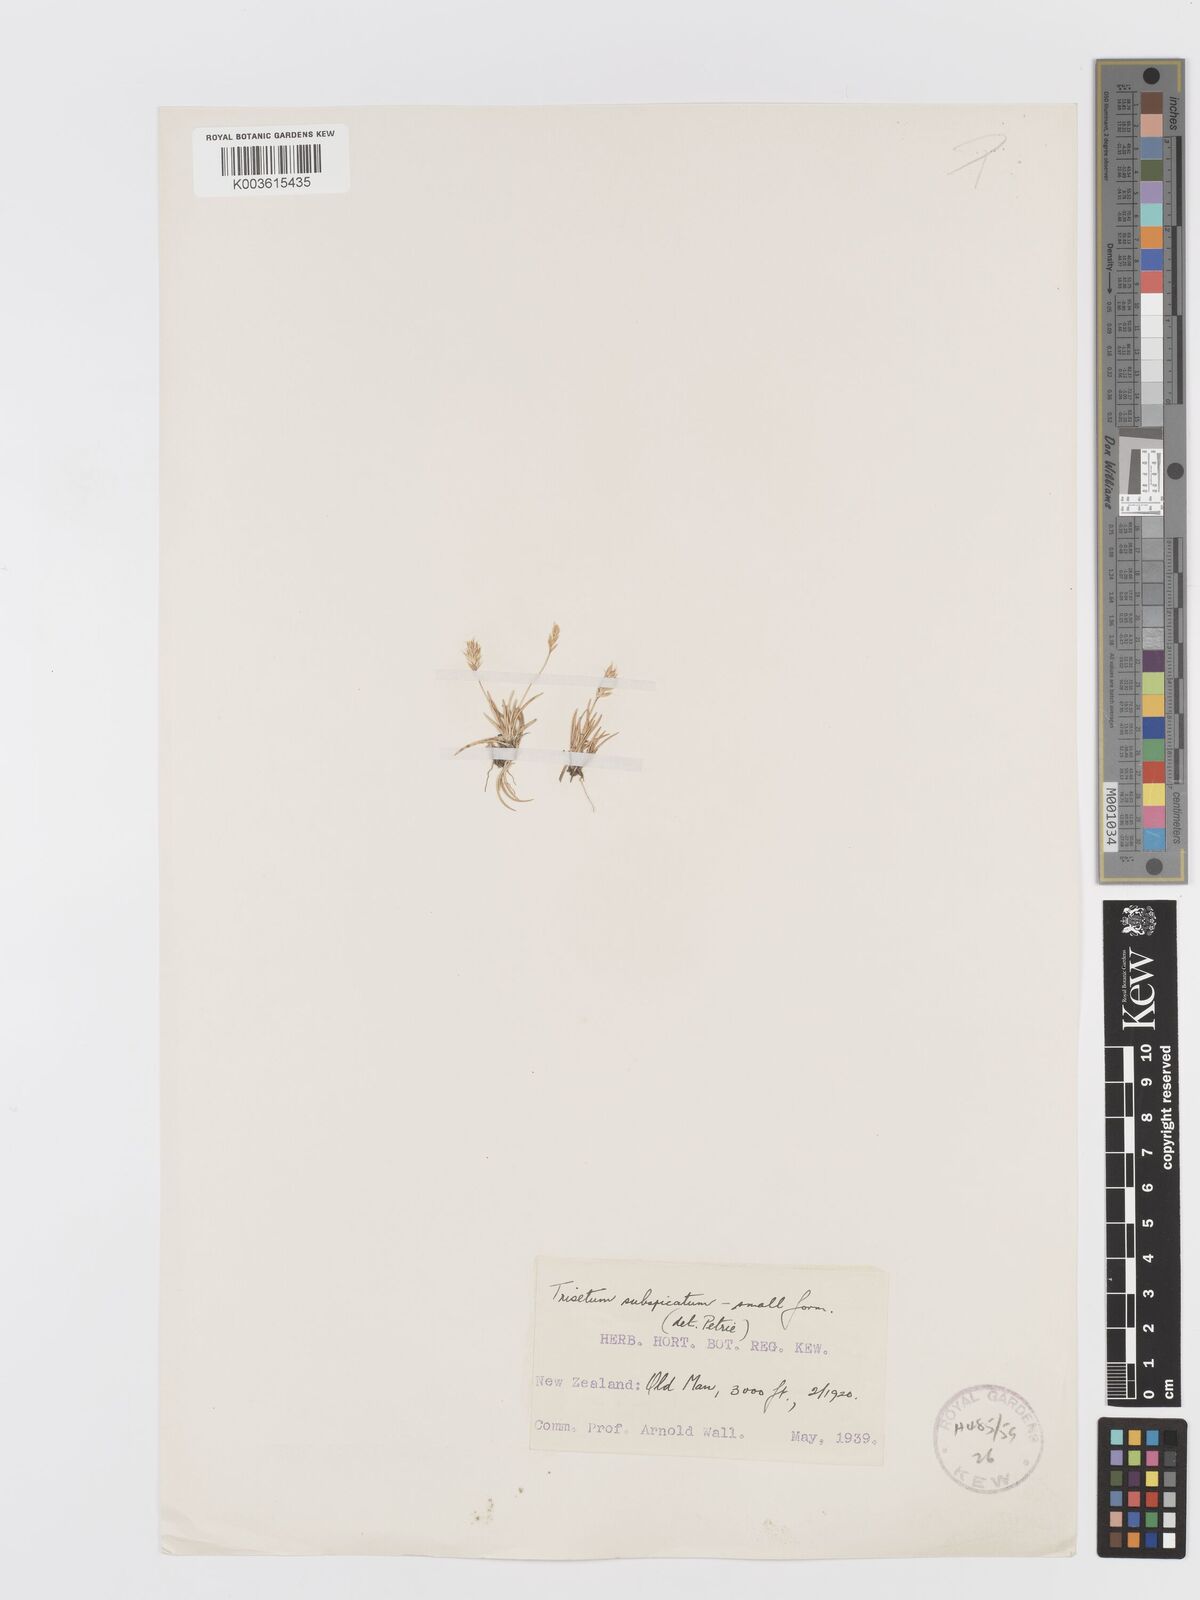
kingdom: Plantae
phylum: Tracheophyta
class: Liliopsida
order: Poales
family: Poaceae
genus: Koeleria
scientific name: Koeleria spicata
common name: Mountain trisetum
